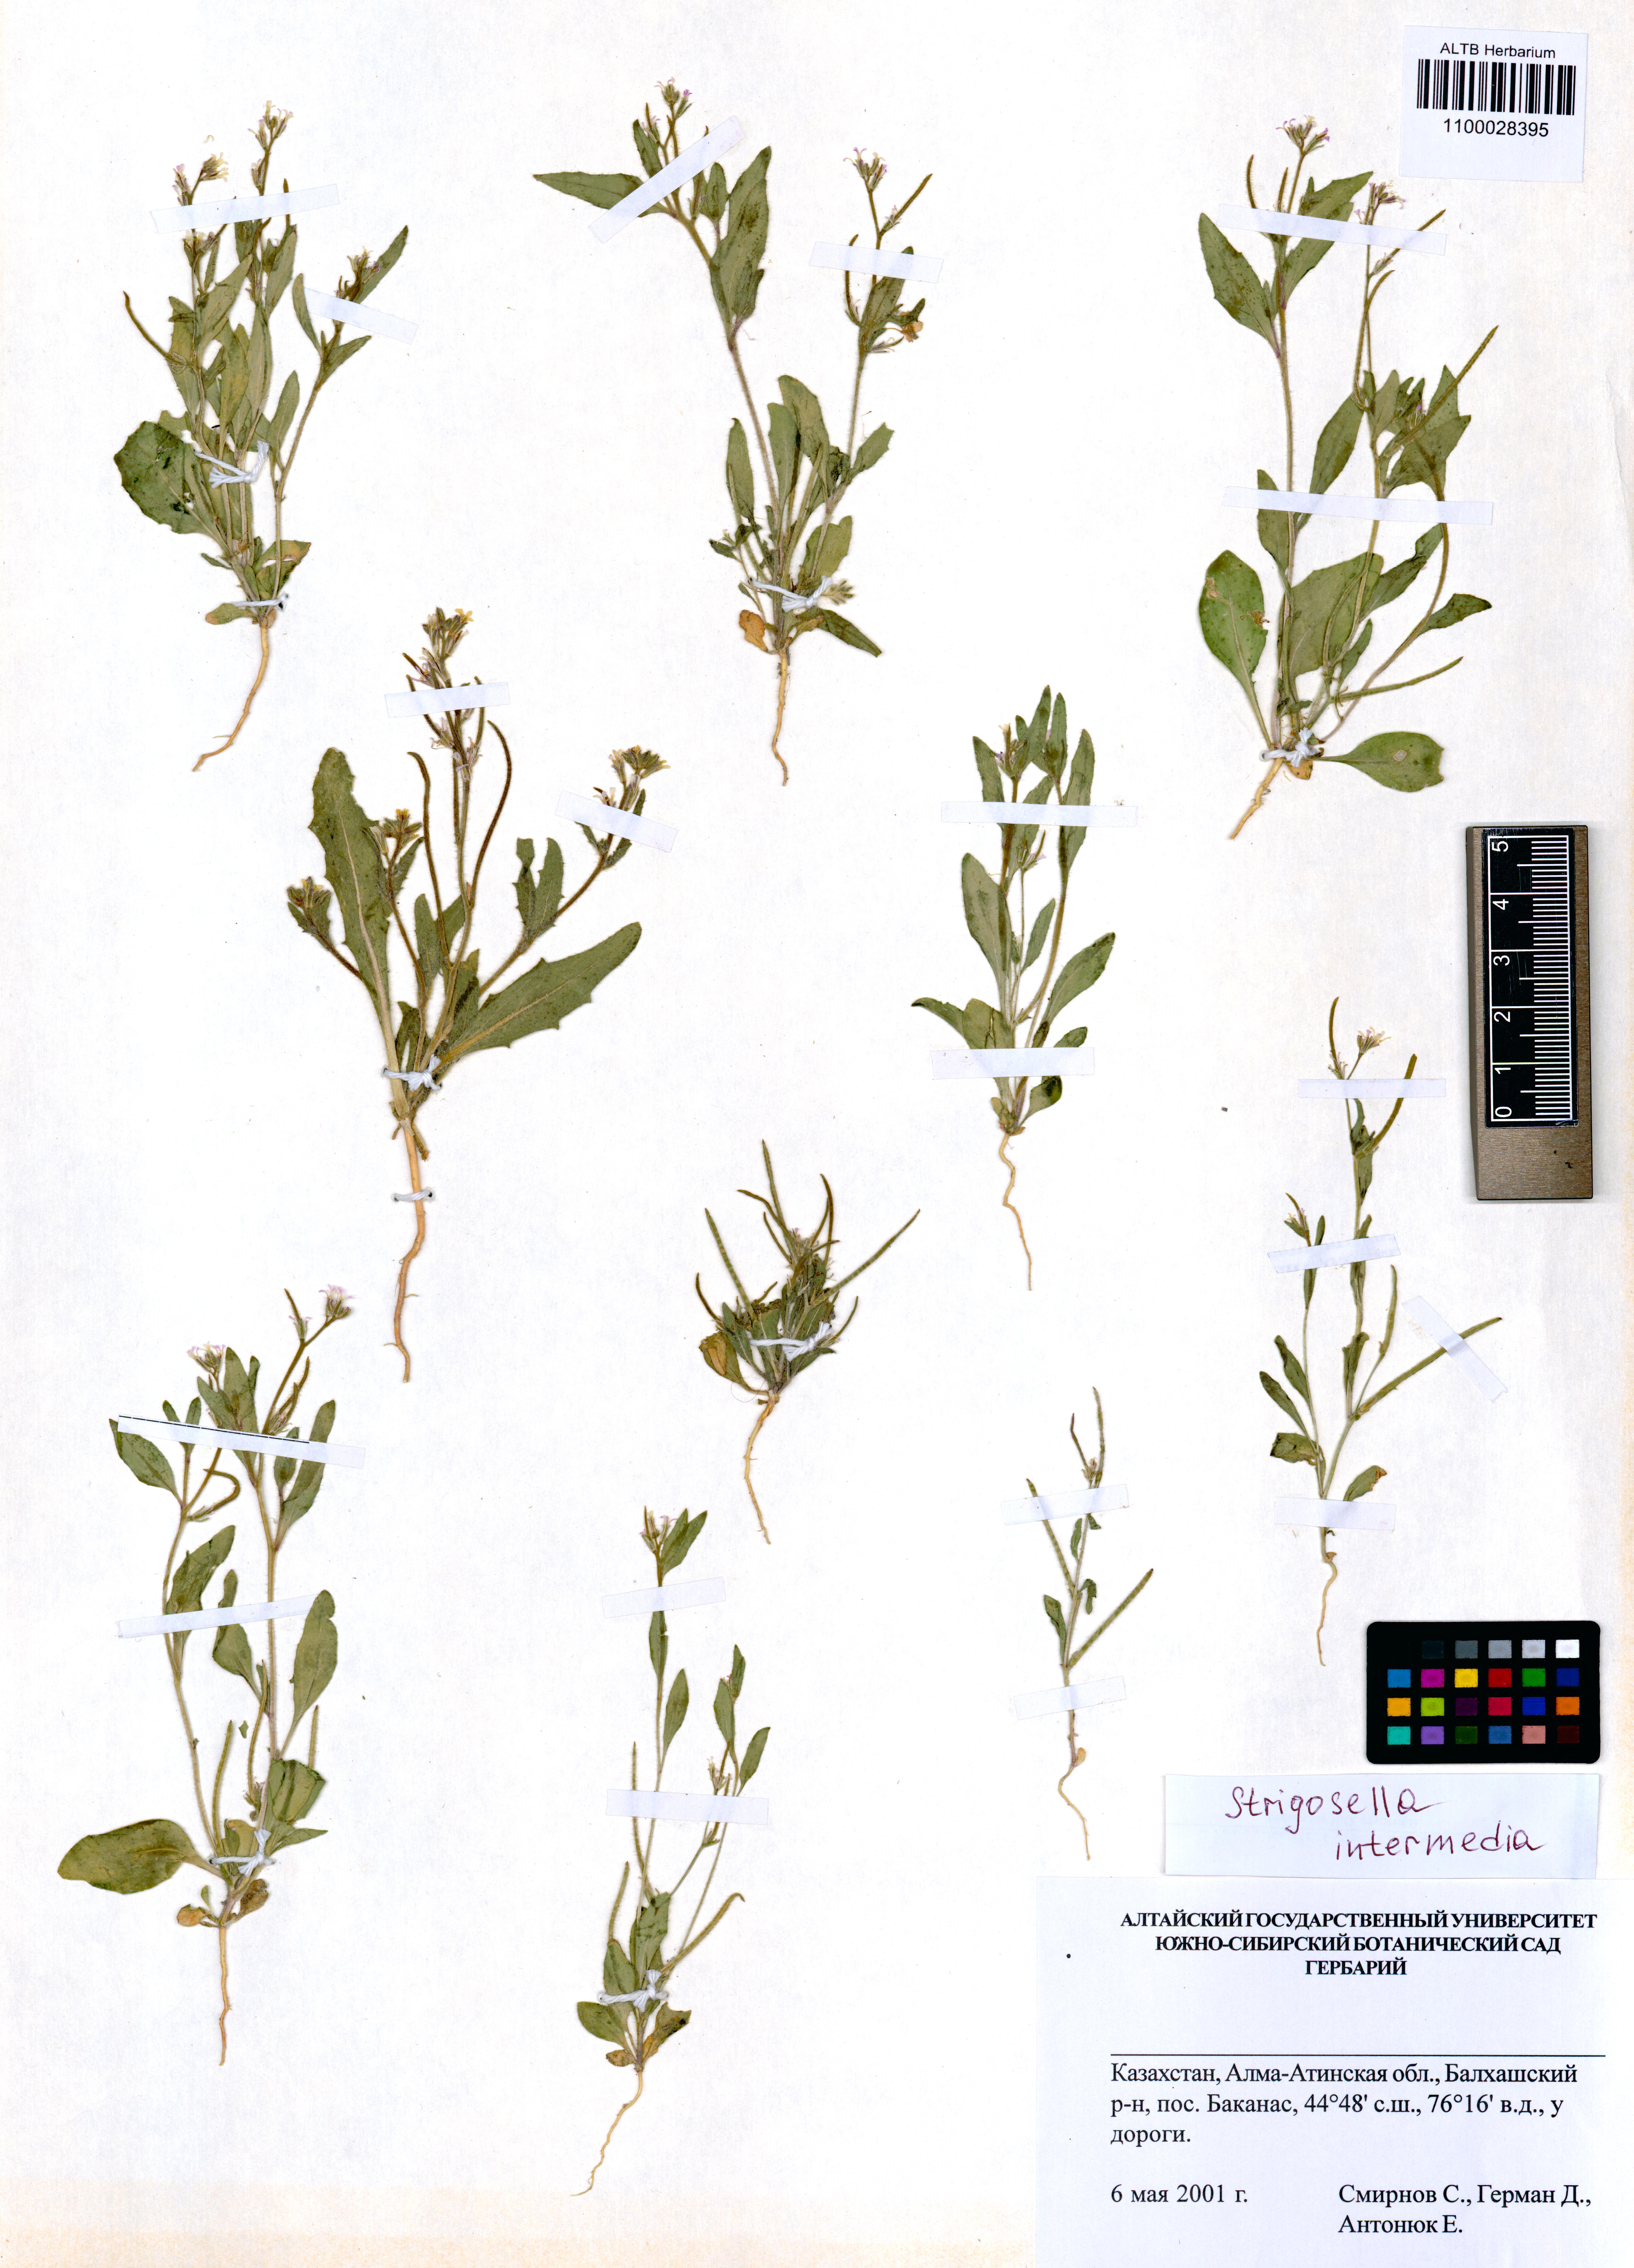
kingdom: Plantae
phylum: Tracheophyta
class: Magnoliopsida
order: Brassicales
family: Brassicaceae
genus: Strigosella
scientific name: Strigosella intermedia
